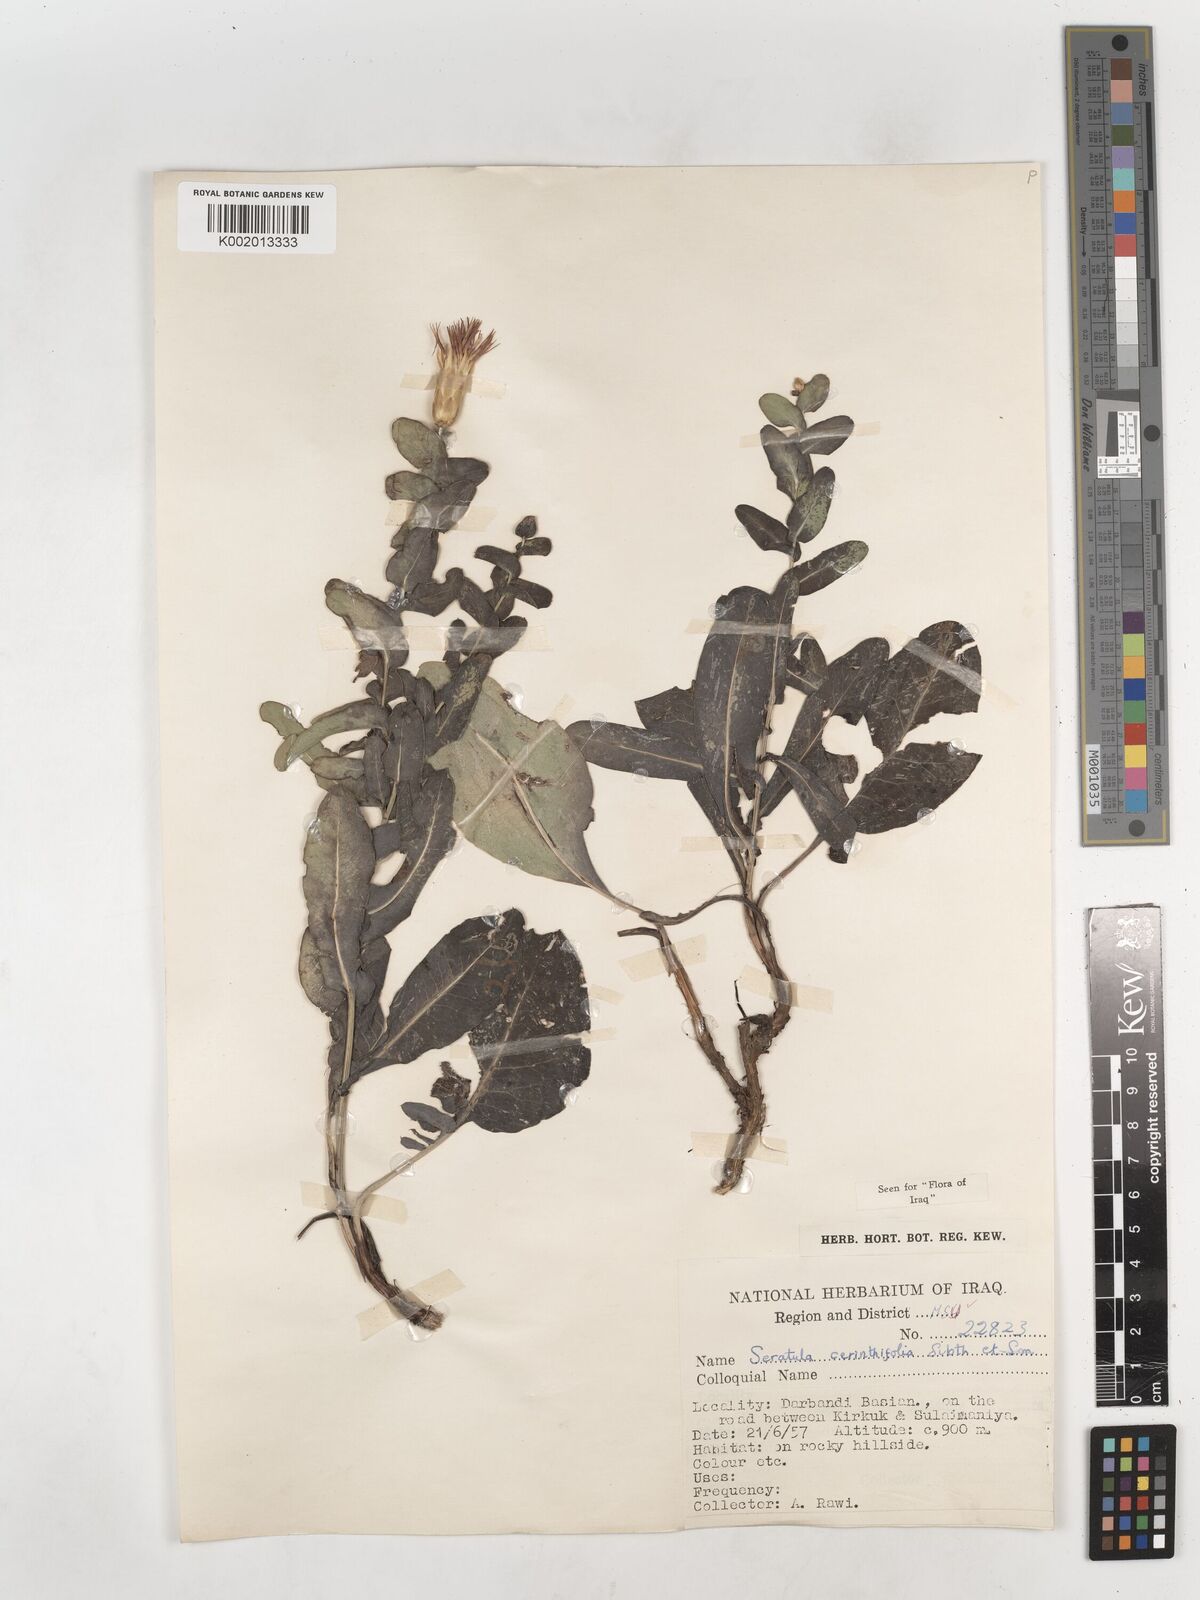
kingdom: Plantae
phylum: Tracheophyta
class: Magnoliopsida
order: Asterales
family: Asteraceae
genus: Klasea
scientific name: Klasea cerinthifolia
